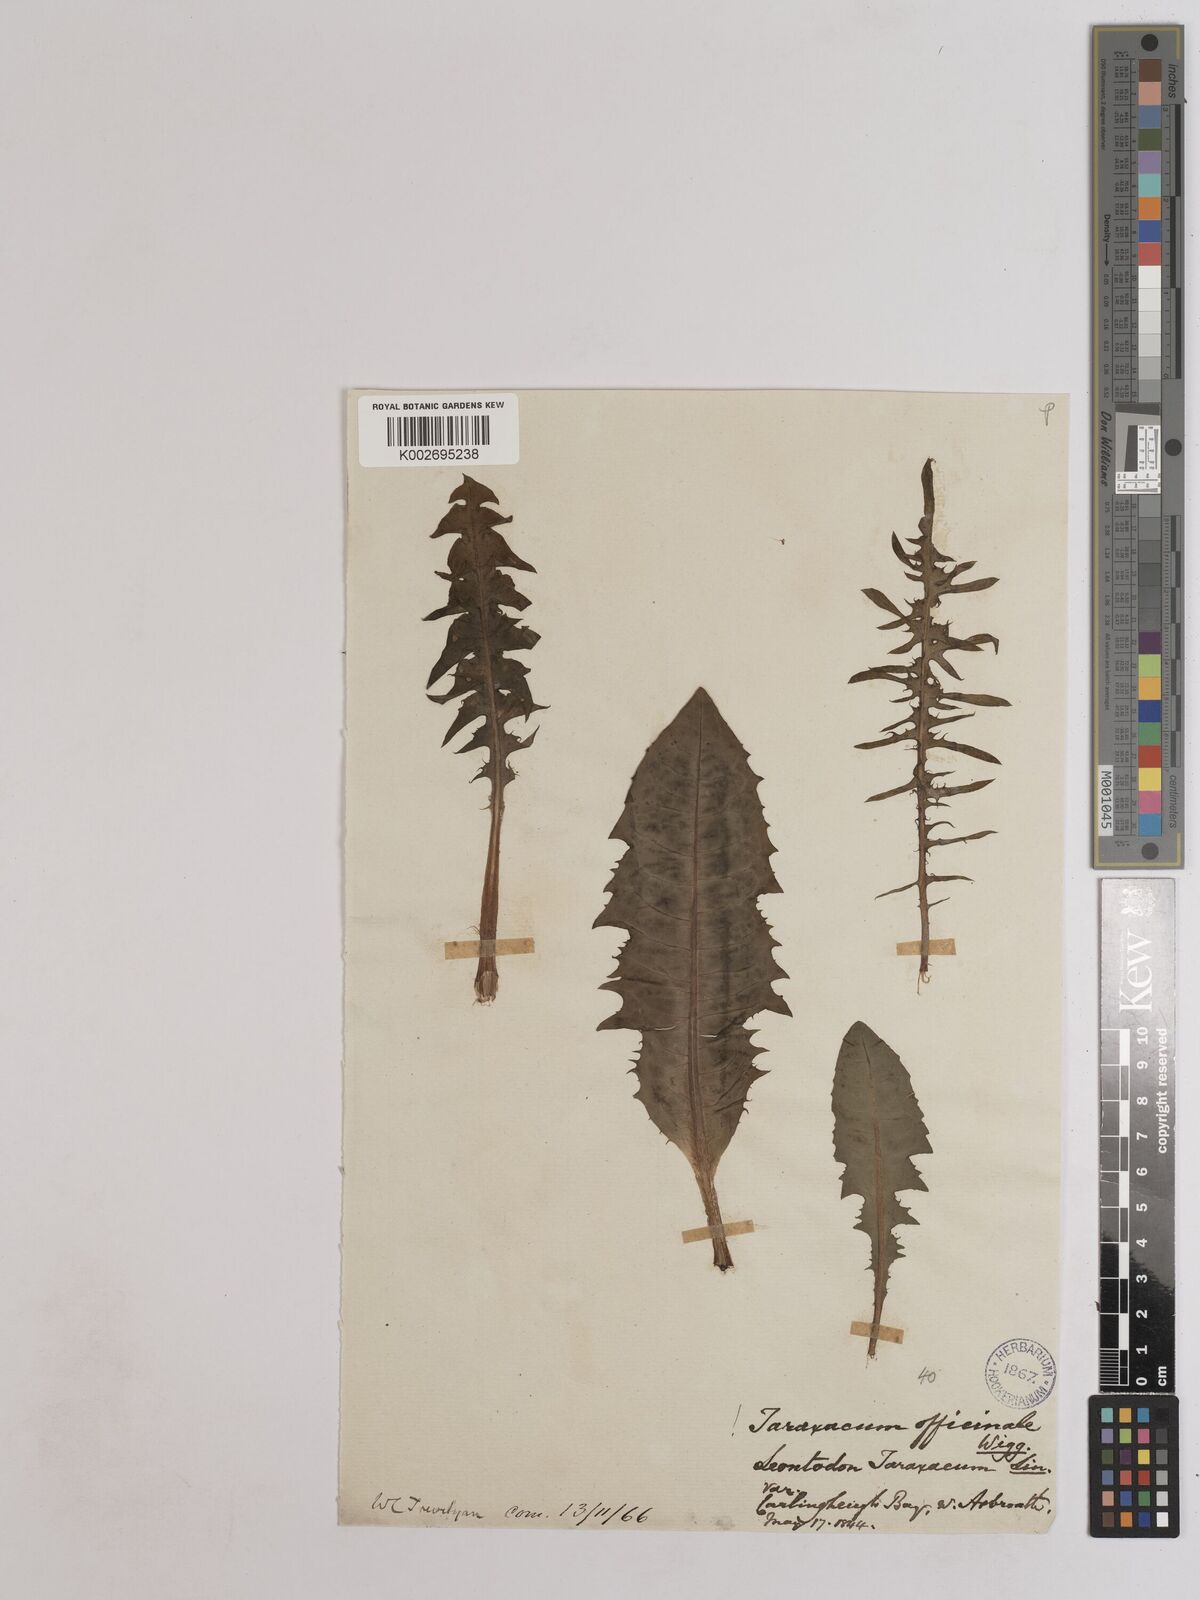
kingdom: Plantae
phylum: Tracheophyta
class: Magnoliopsida
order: Asterales
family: Asteraceae
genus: Taraxacum
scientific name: Taraxacum officinale
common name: Common dandelion
